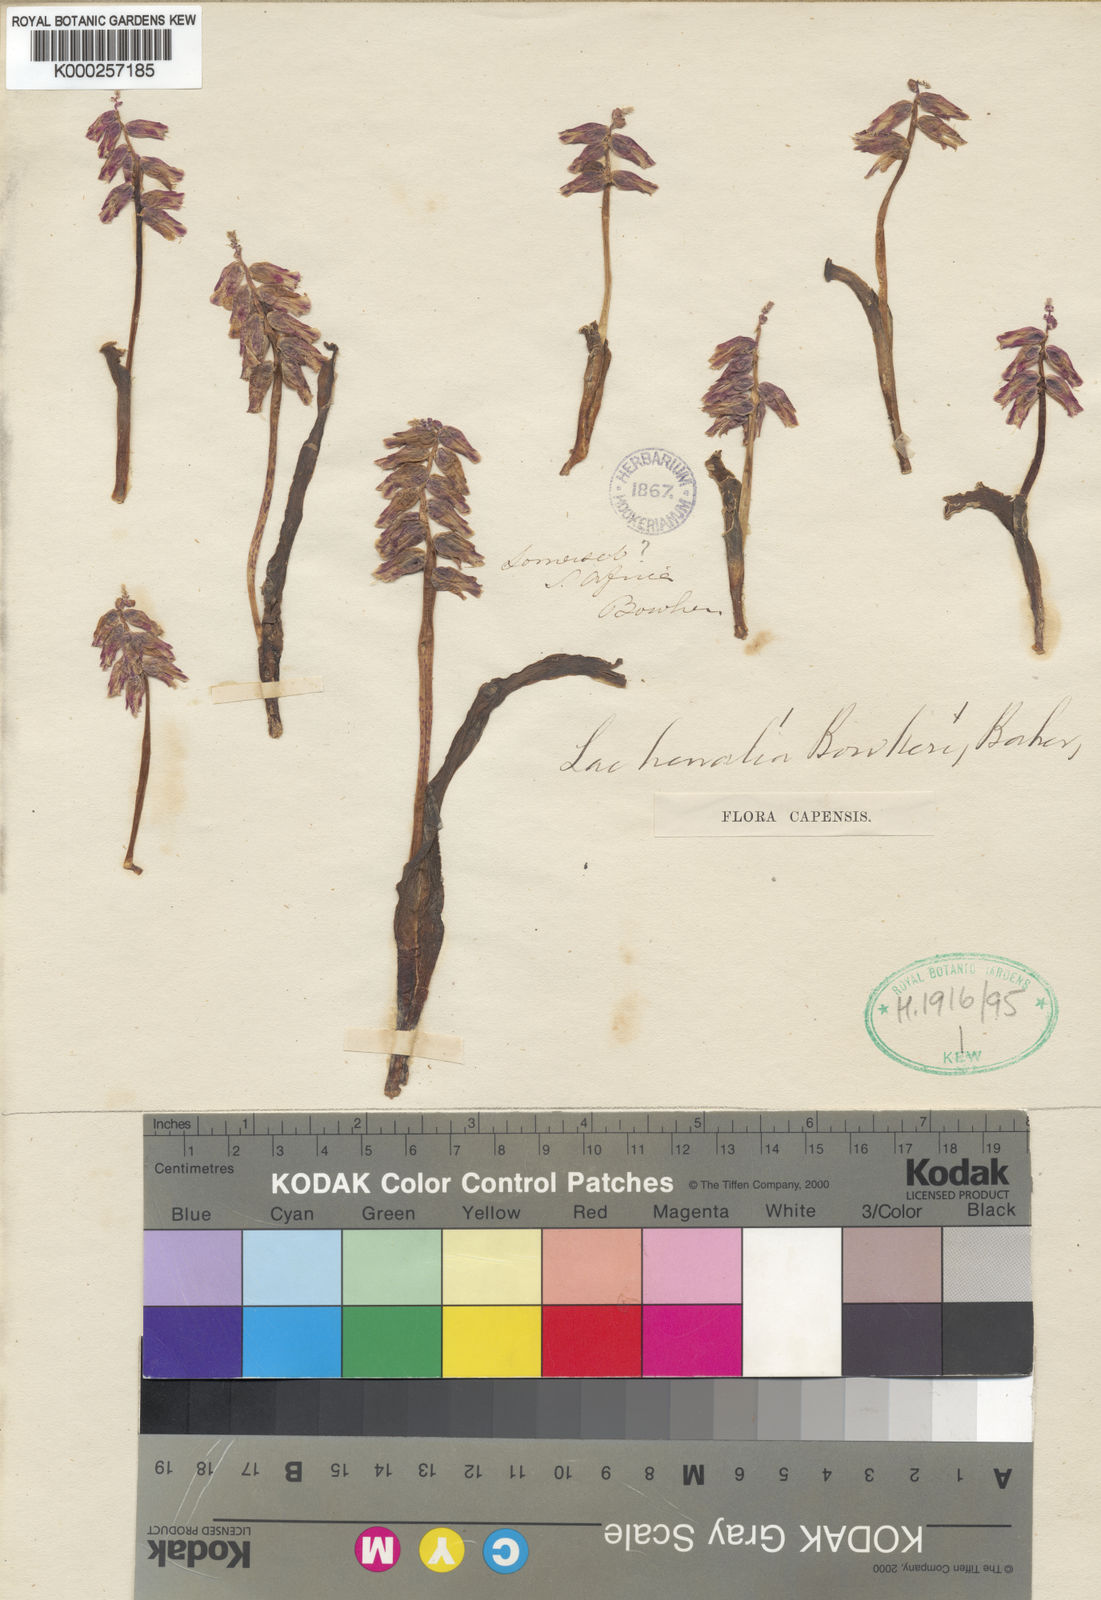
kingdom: Plantae
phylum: Tracheophyta
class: Liliopsida
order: Asparagales
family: Asparagaceae
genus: Lachenalia
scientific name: Lachenalia bowkeri
